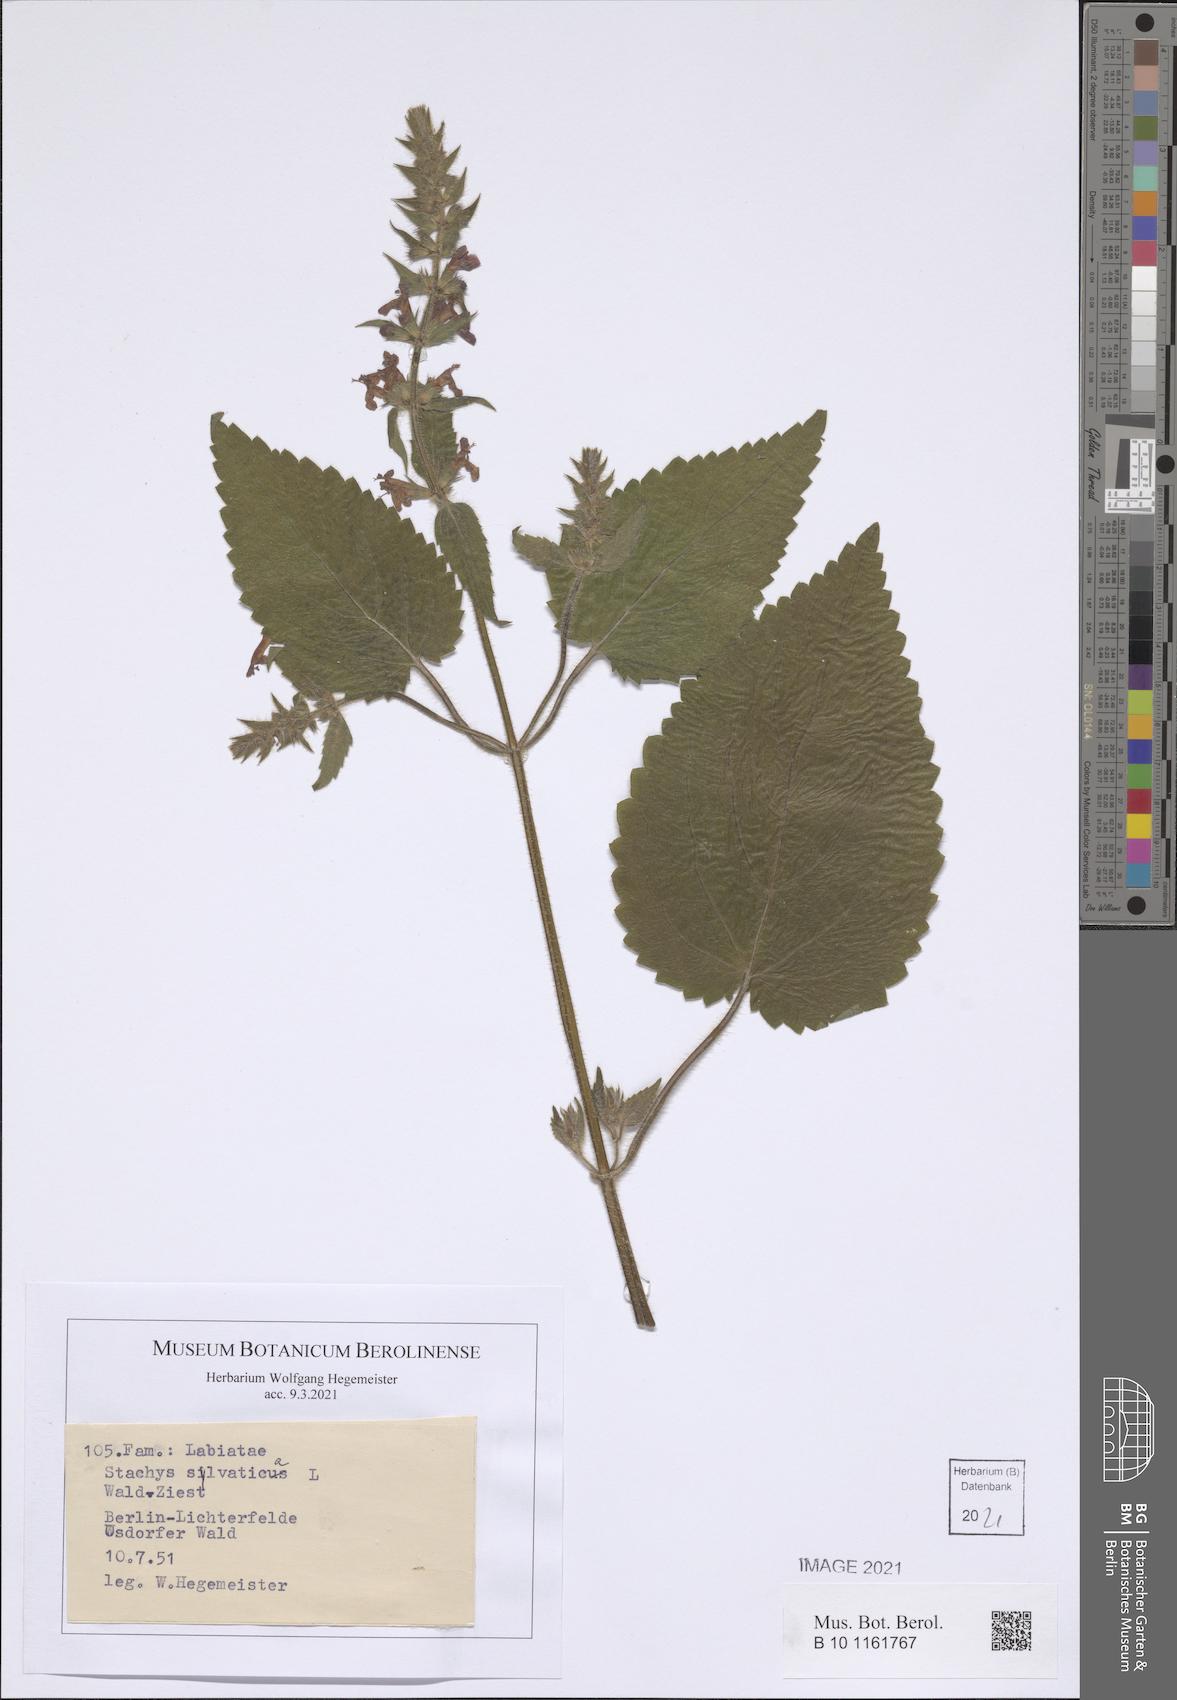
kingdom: Plantae
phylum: Tracheophyta
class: Magnoliopsida
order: Lamiales
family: Lamiaceae
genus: Stachys
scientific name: Stachys sylvatica
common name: Hedge woundwort
